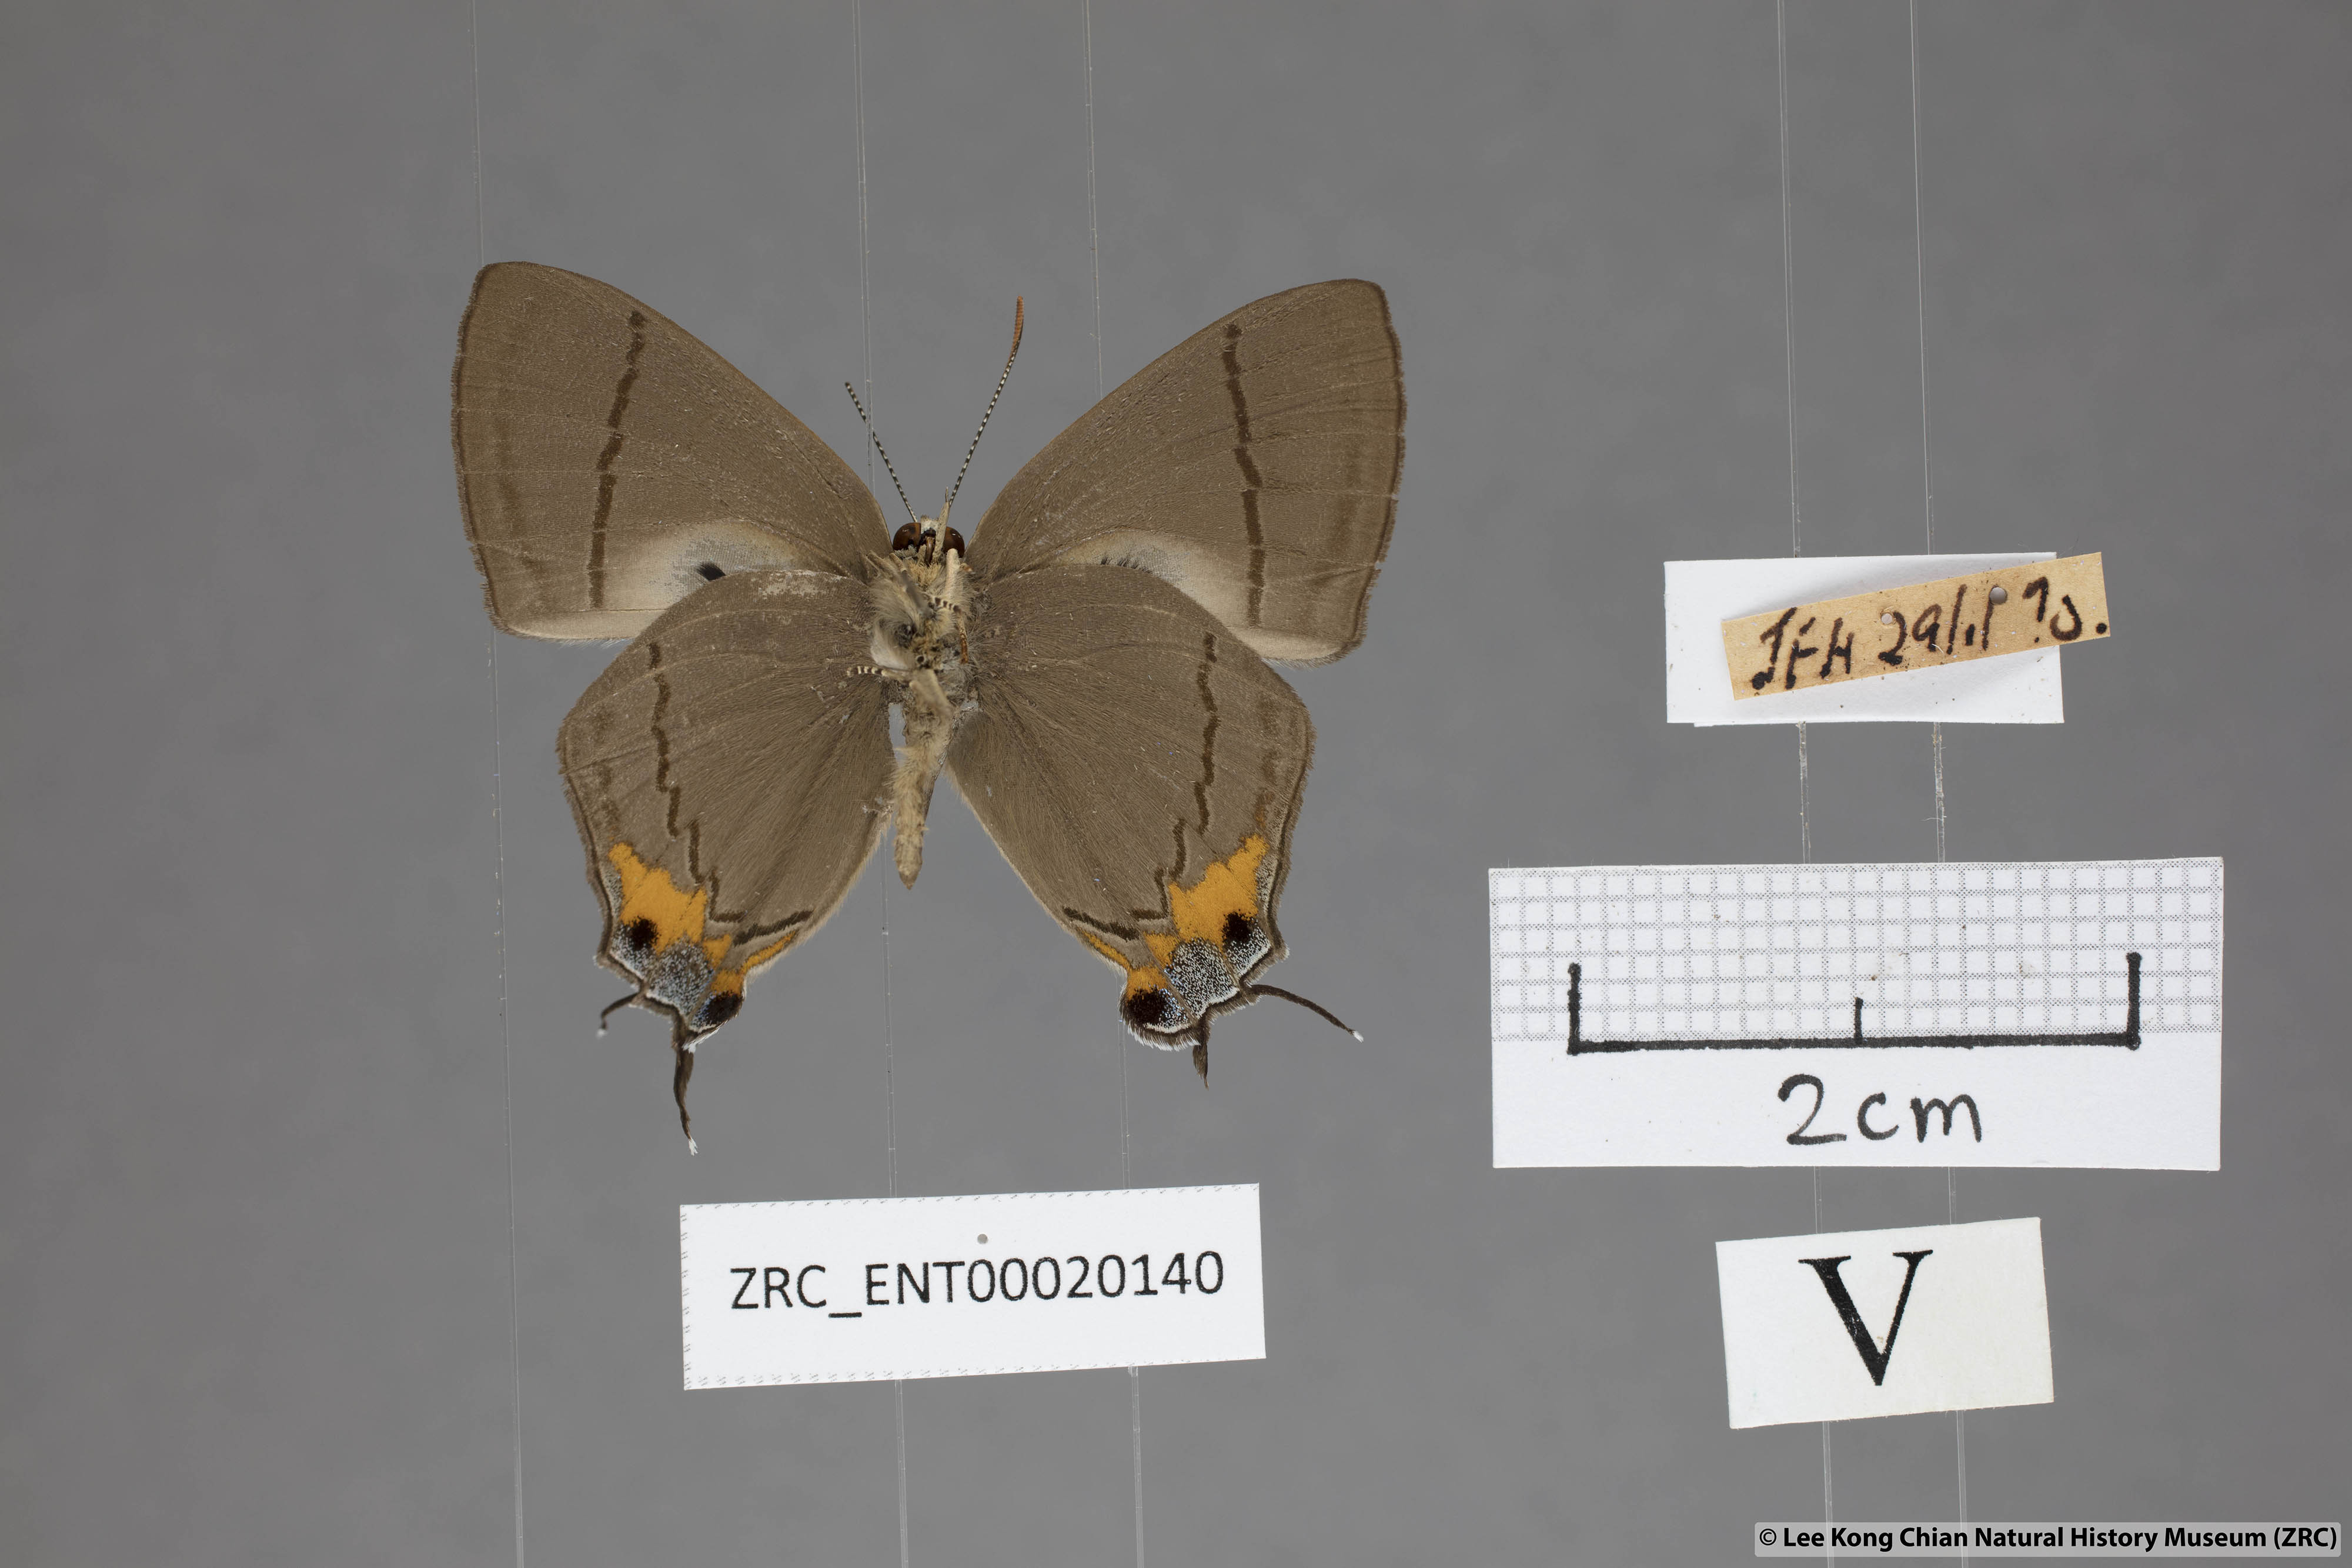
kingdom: Animalia
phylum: Arthropoda
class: Insecta
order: Lepidoptera
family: Lycaenidae
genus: Creon
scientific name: Creon cleobis
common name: Broad-tail royal
